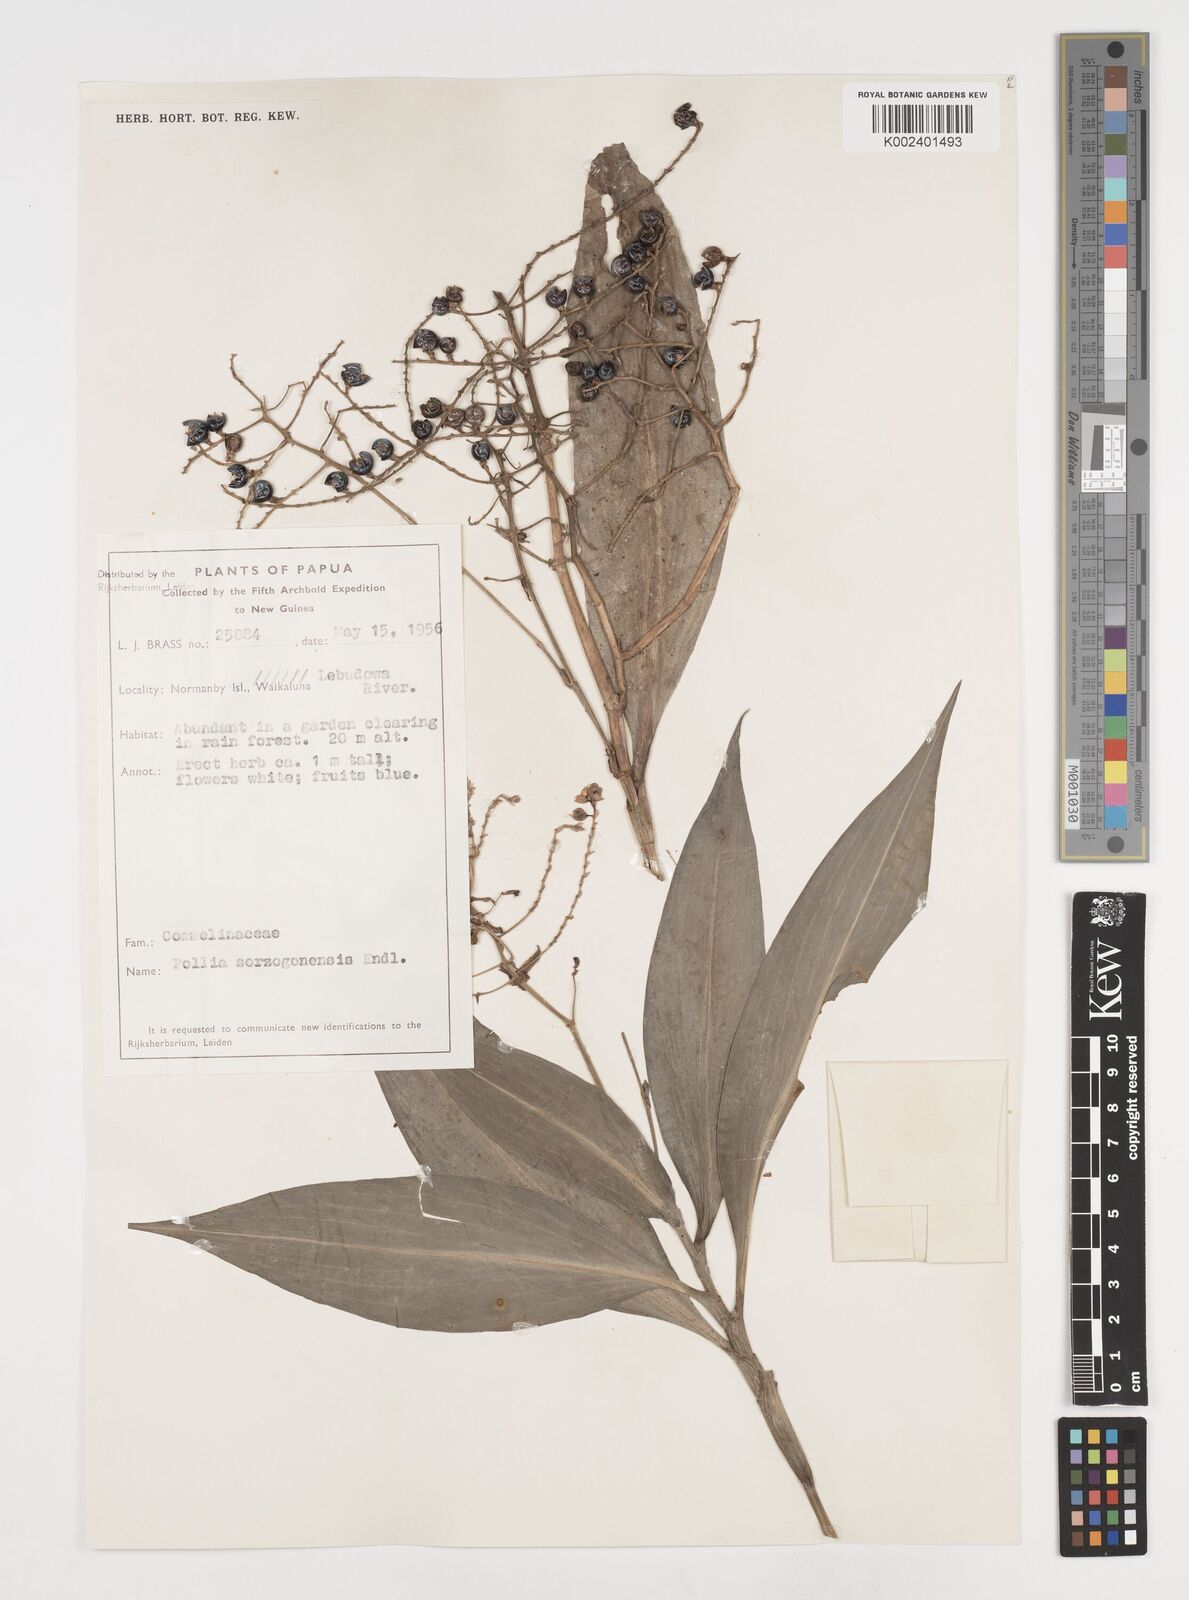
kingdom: Plantae
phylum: Tracheophyta
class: Liliopsida
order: Commelinales
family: Commelinaceae
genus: Pollia
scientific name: Pollia secundiflora
